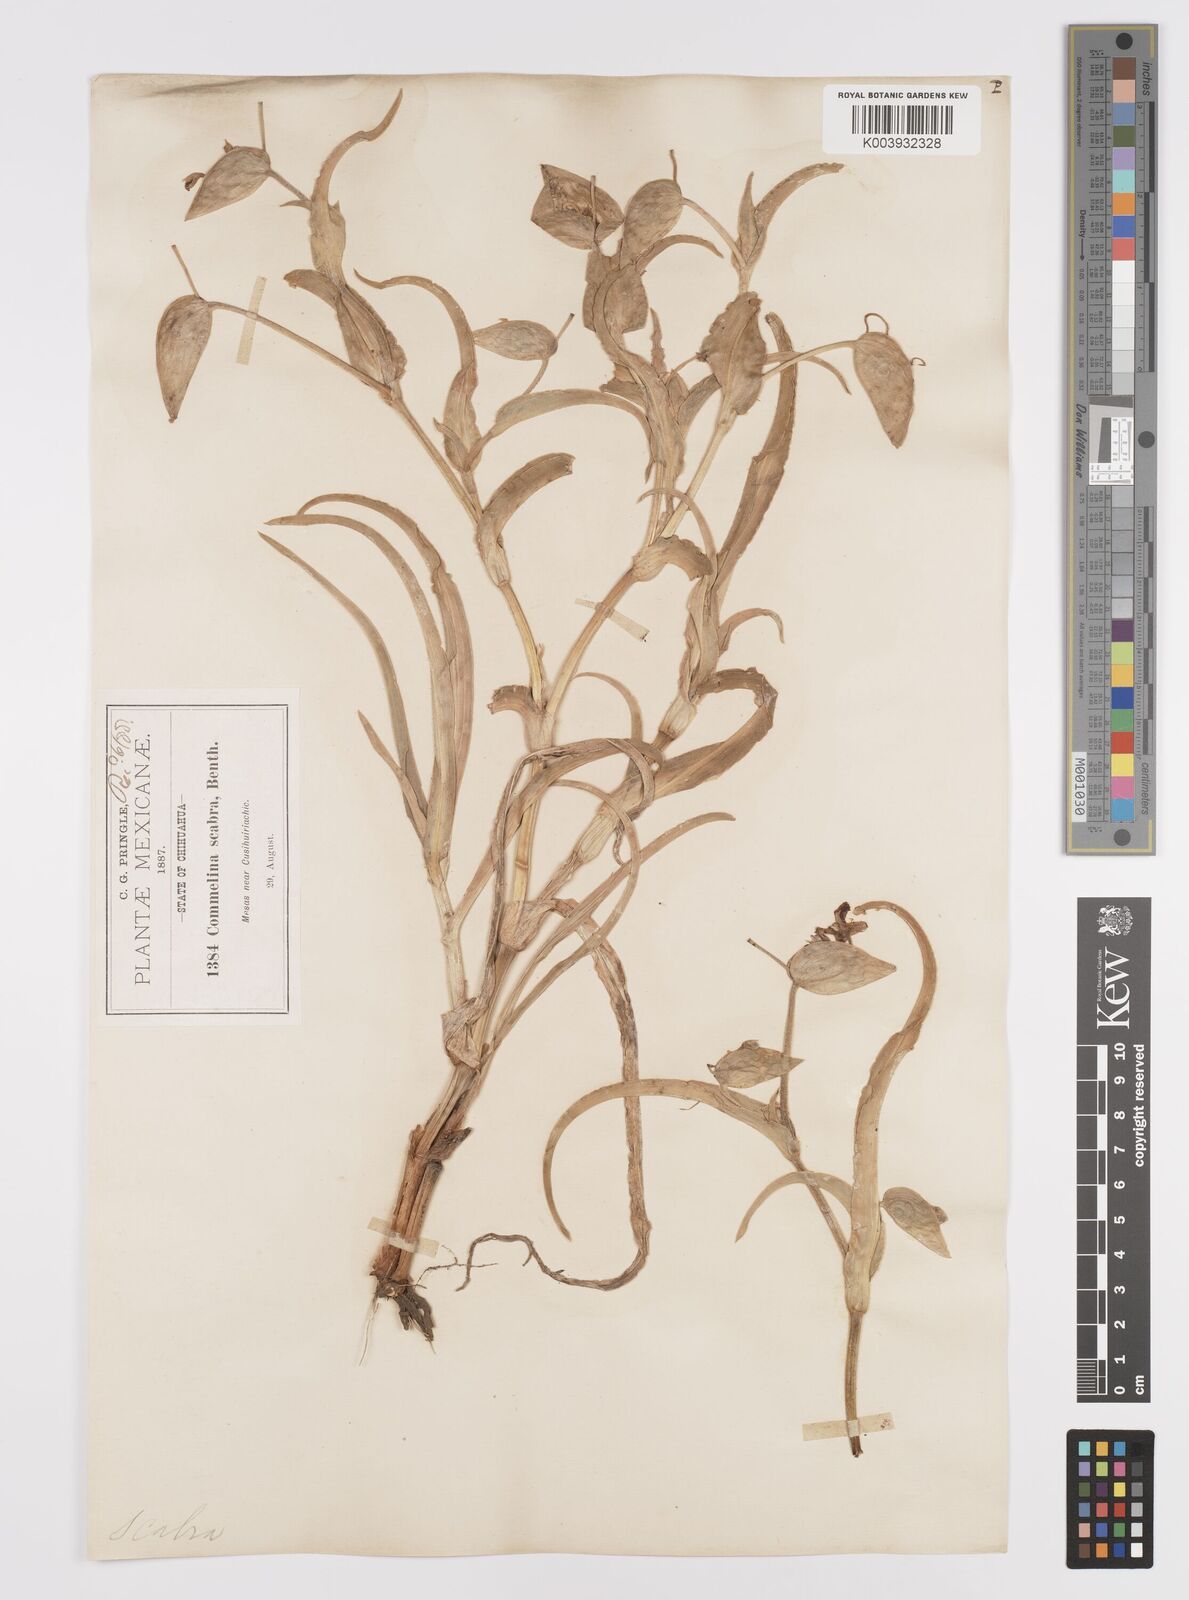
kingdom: Plantae
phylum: Tracheophyta
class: Liliopsida
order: Commelinales
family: Commelinaceae
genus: Commelina
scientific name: Commelina scabra
